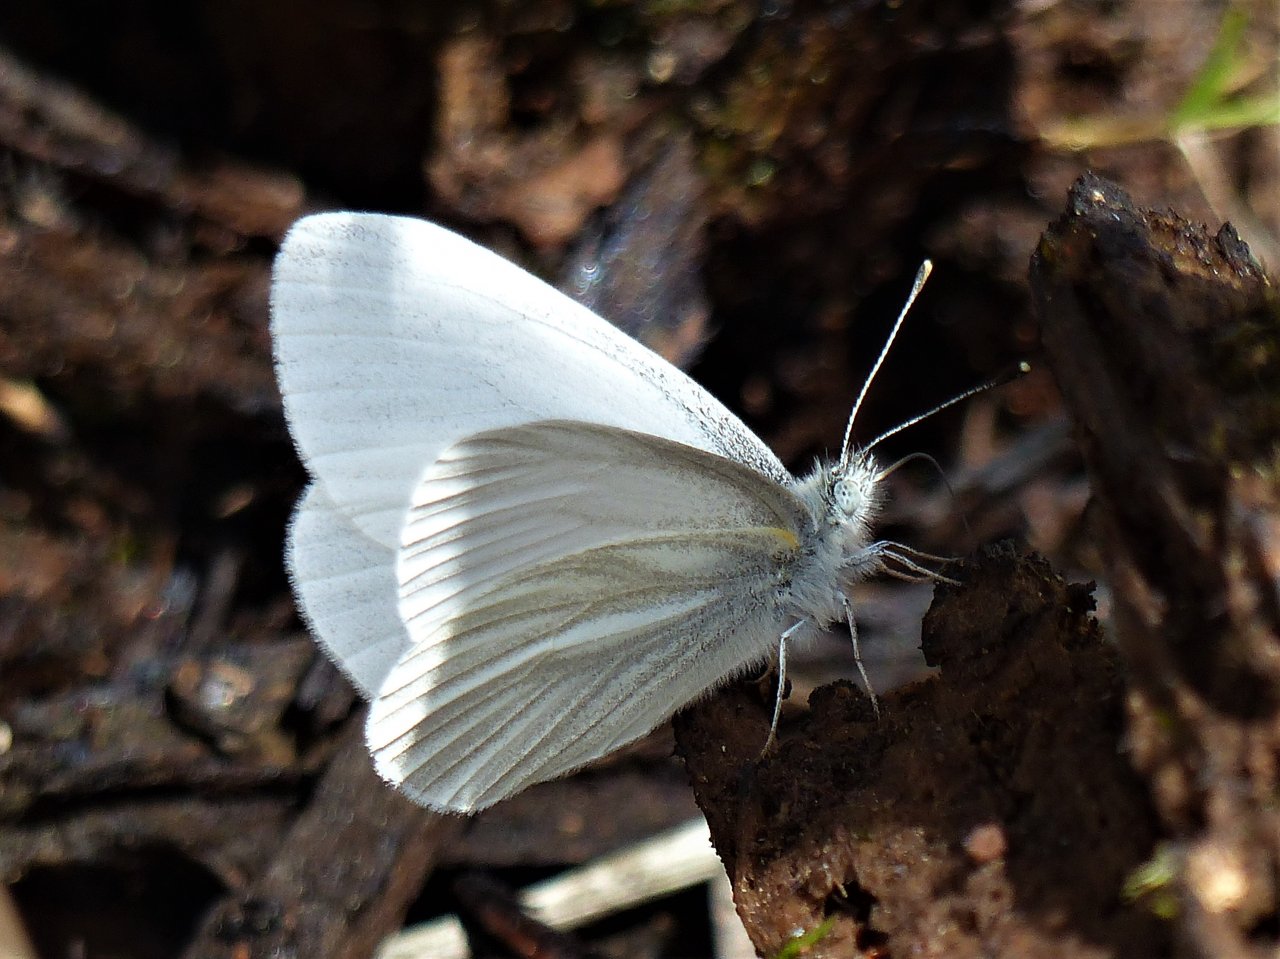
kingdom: Animalia
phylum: Arthropoda
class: Insecta
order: Lepidoptera
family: Pieridae
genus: Pieris
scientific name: Pieris virginiensis
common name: West Virginia White
